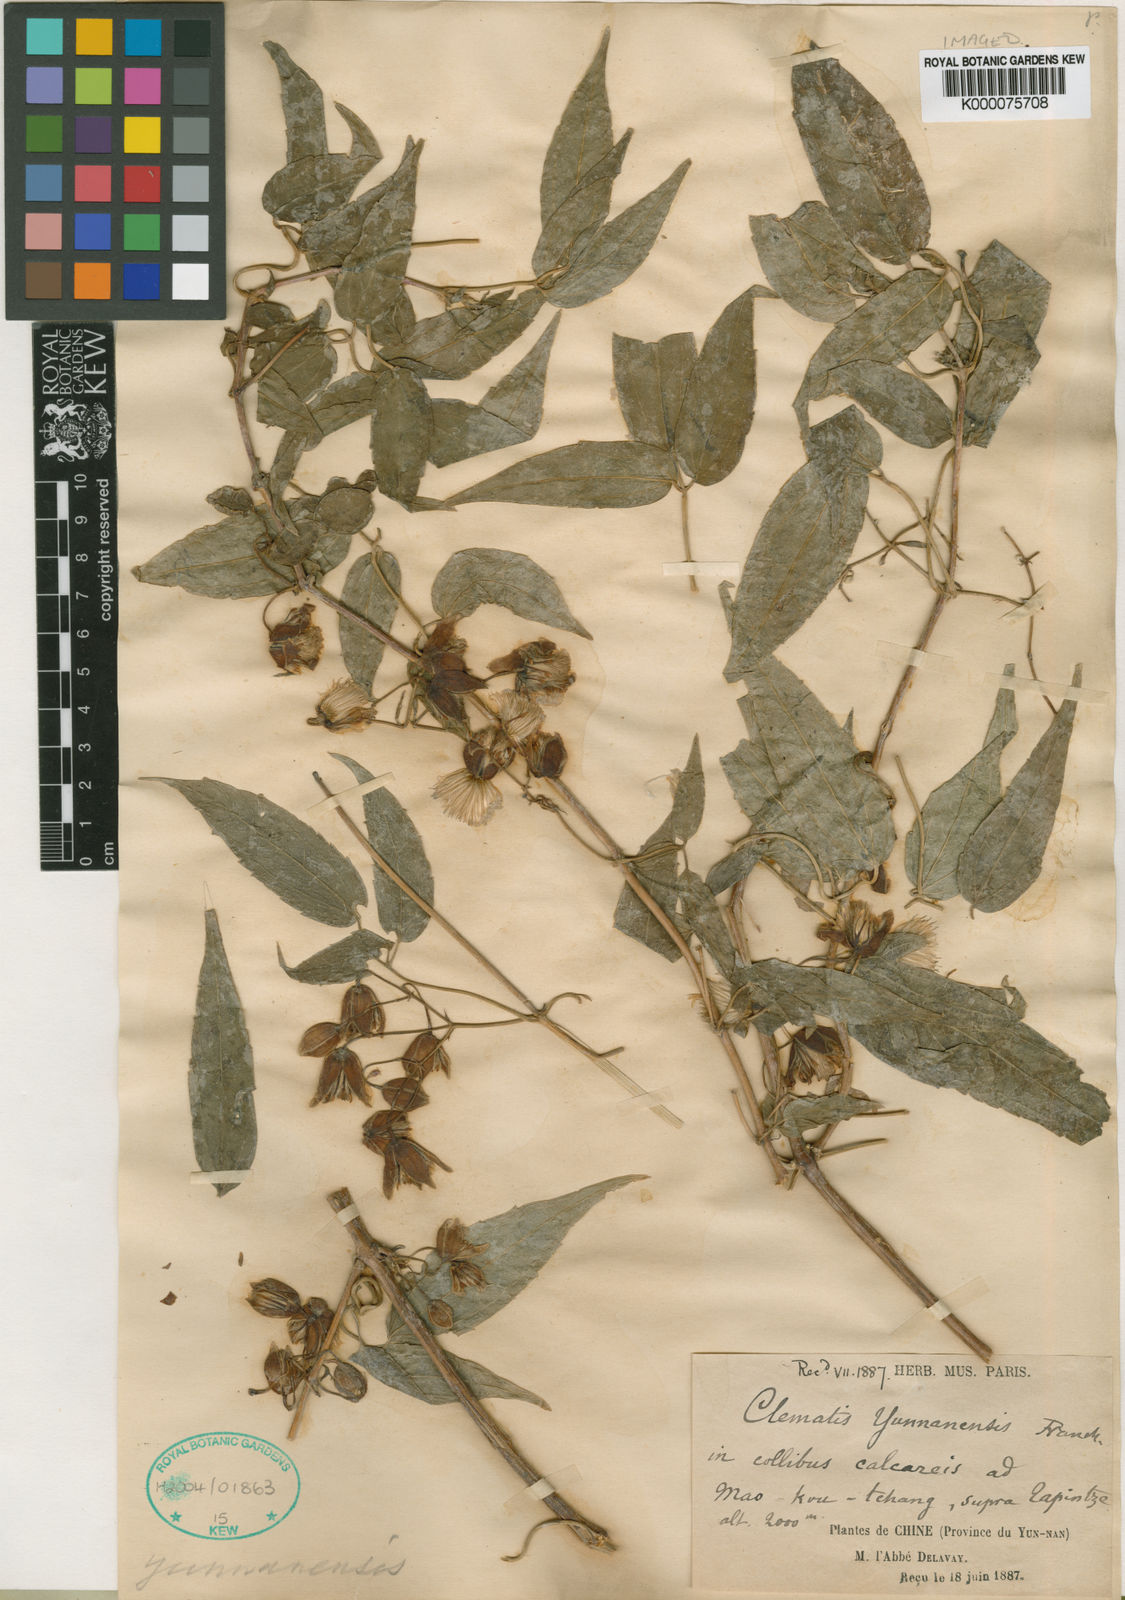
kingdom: Plantae
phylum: Tracheophyta
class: Magnoliopsida
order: Ranunculales
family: Ranunculaceae
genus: Clematis
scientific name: Clematis yunnanensis
